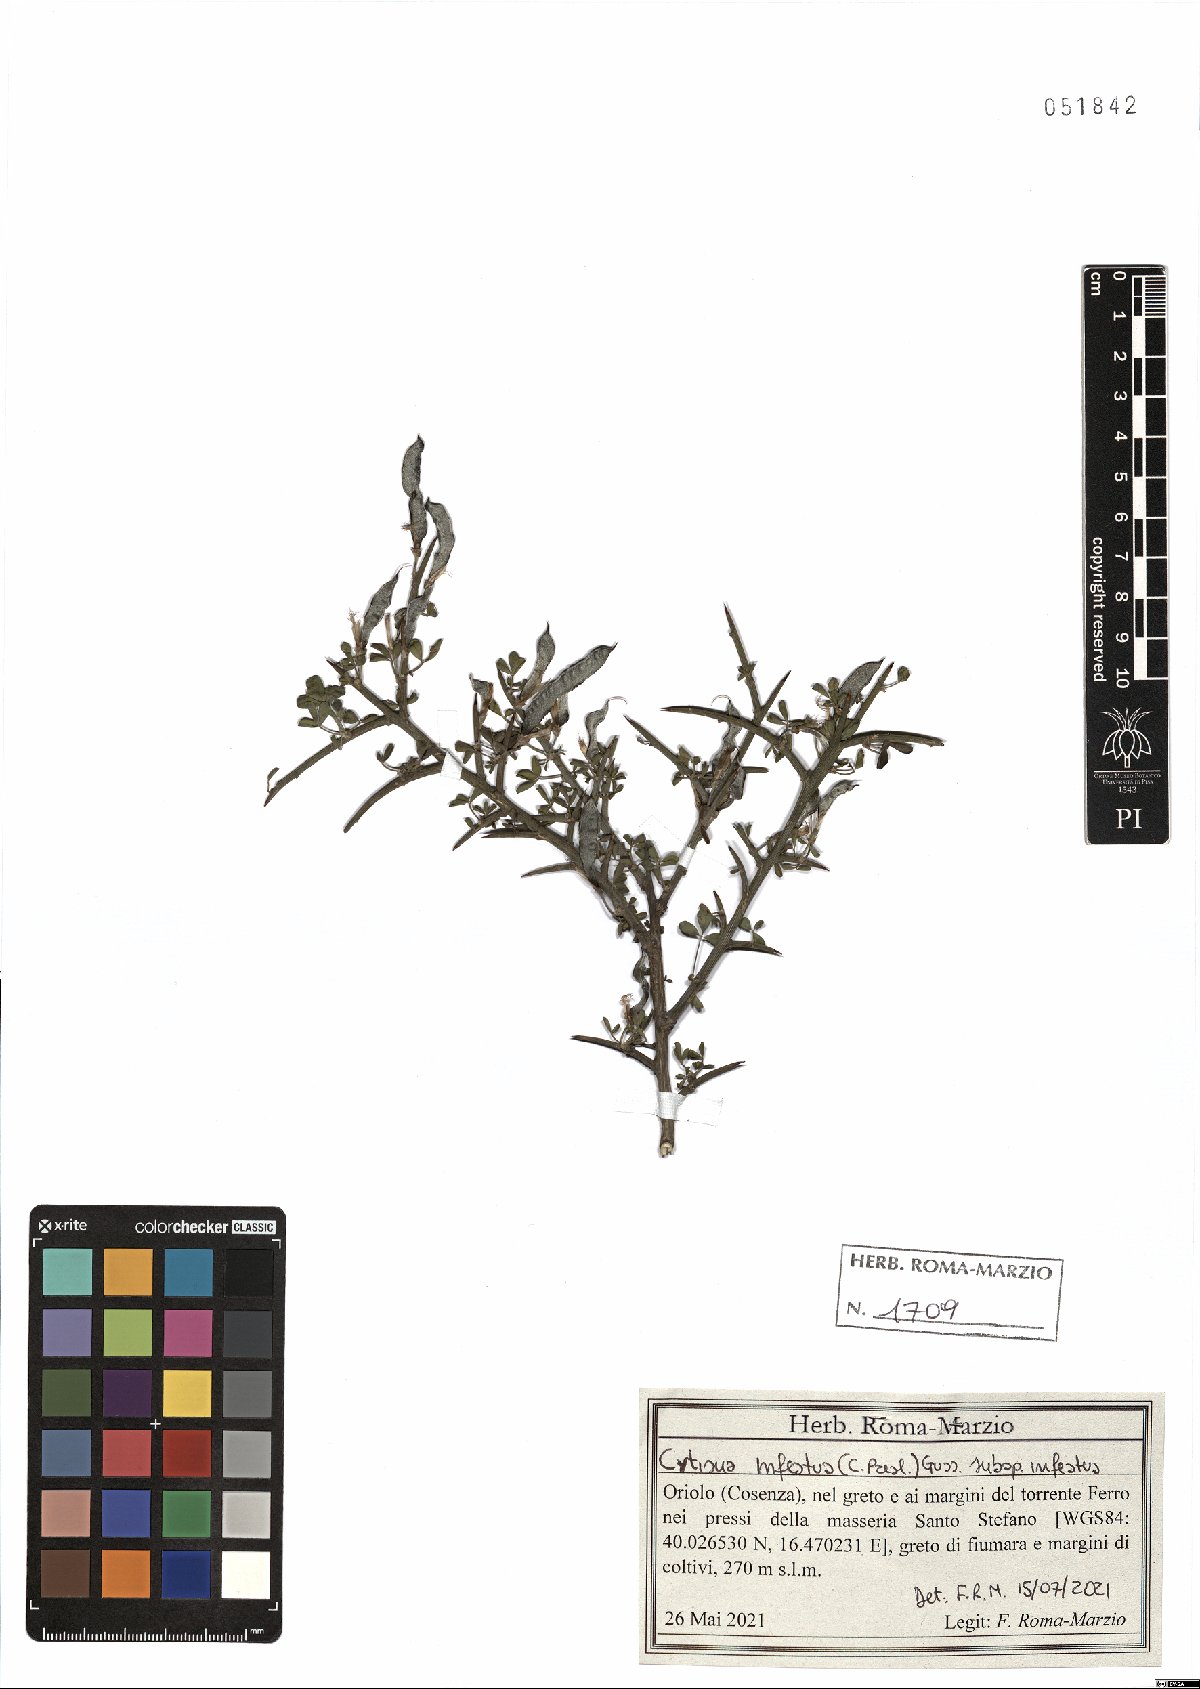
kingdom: Plantae
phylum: Tracheophyta
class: Magnoliopsida
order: Fabales
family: Fabaceae
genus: Cytisus
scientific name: Cytisus infestus
